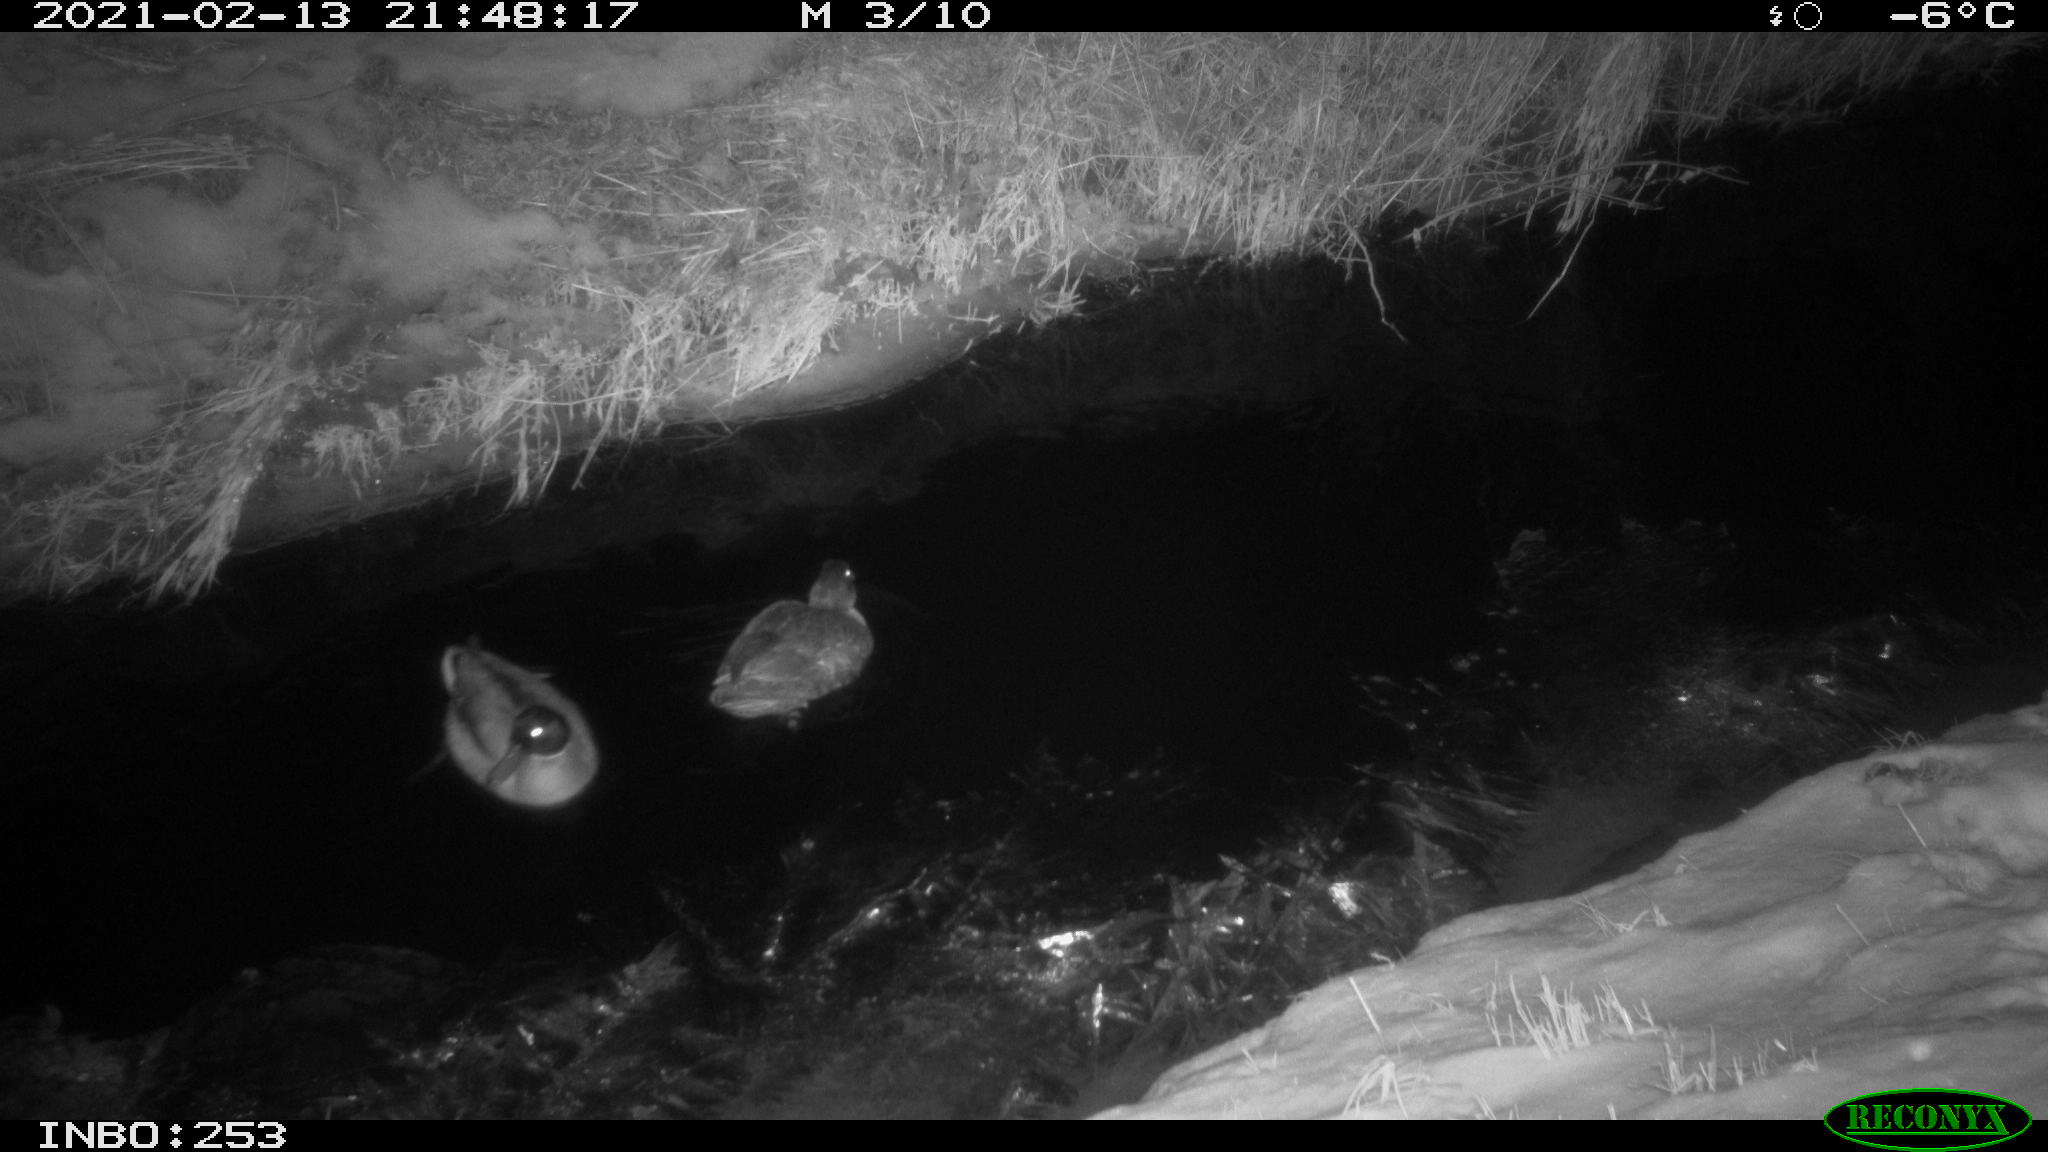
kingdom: Animalia
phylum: Chordata
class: Aves
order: Anseriformes
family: Anatidae
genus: Anas
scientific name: Anas platyrhynchos
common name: Mallard
